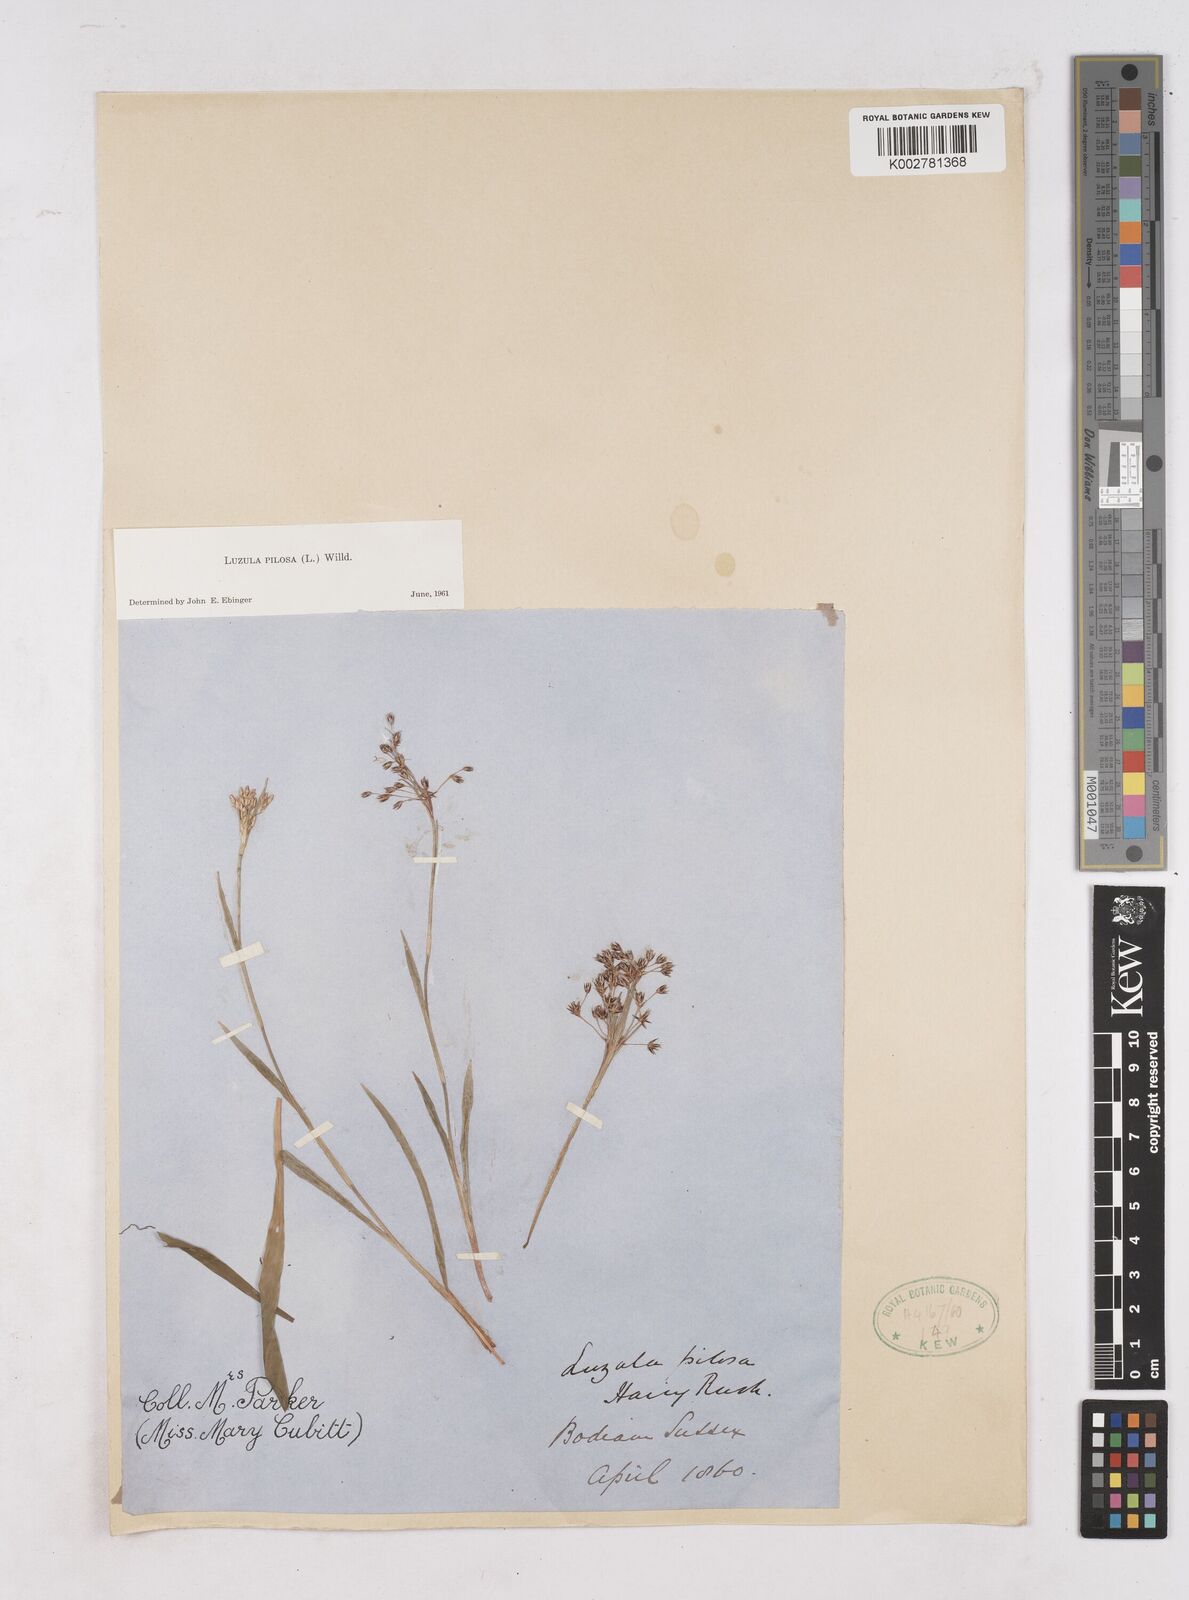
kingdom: Plantae
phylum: Tracheophyta
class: Liliopsida
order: Poales
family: Juncaceae
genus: Luzula
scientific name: Luzula pilosa
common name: Hairy wood-rush
